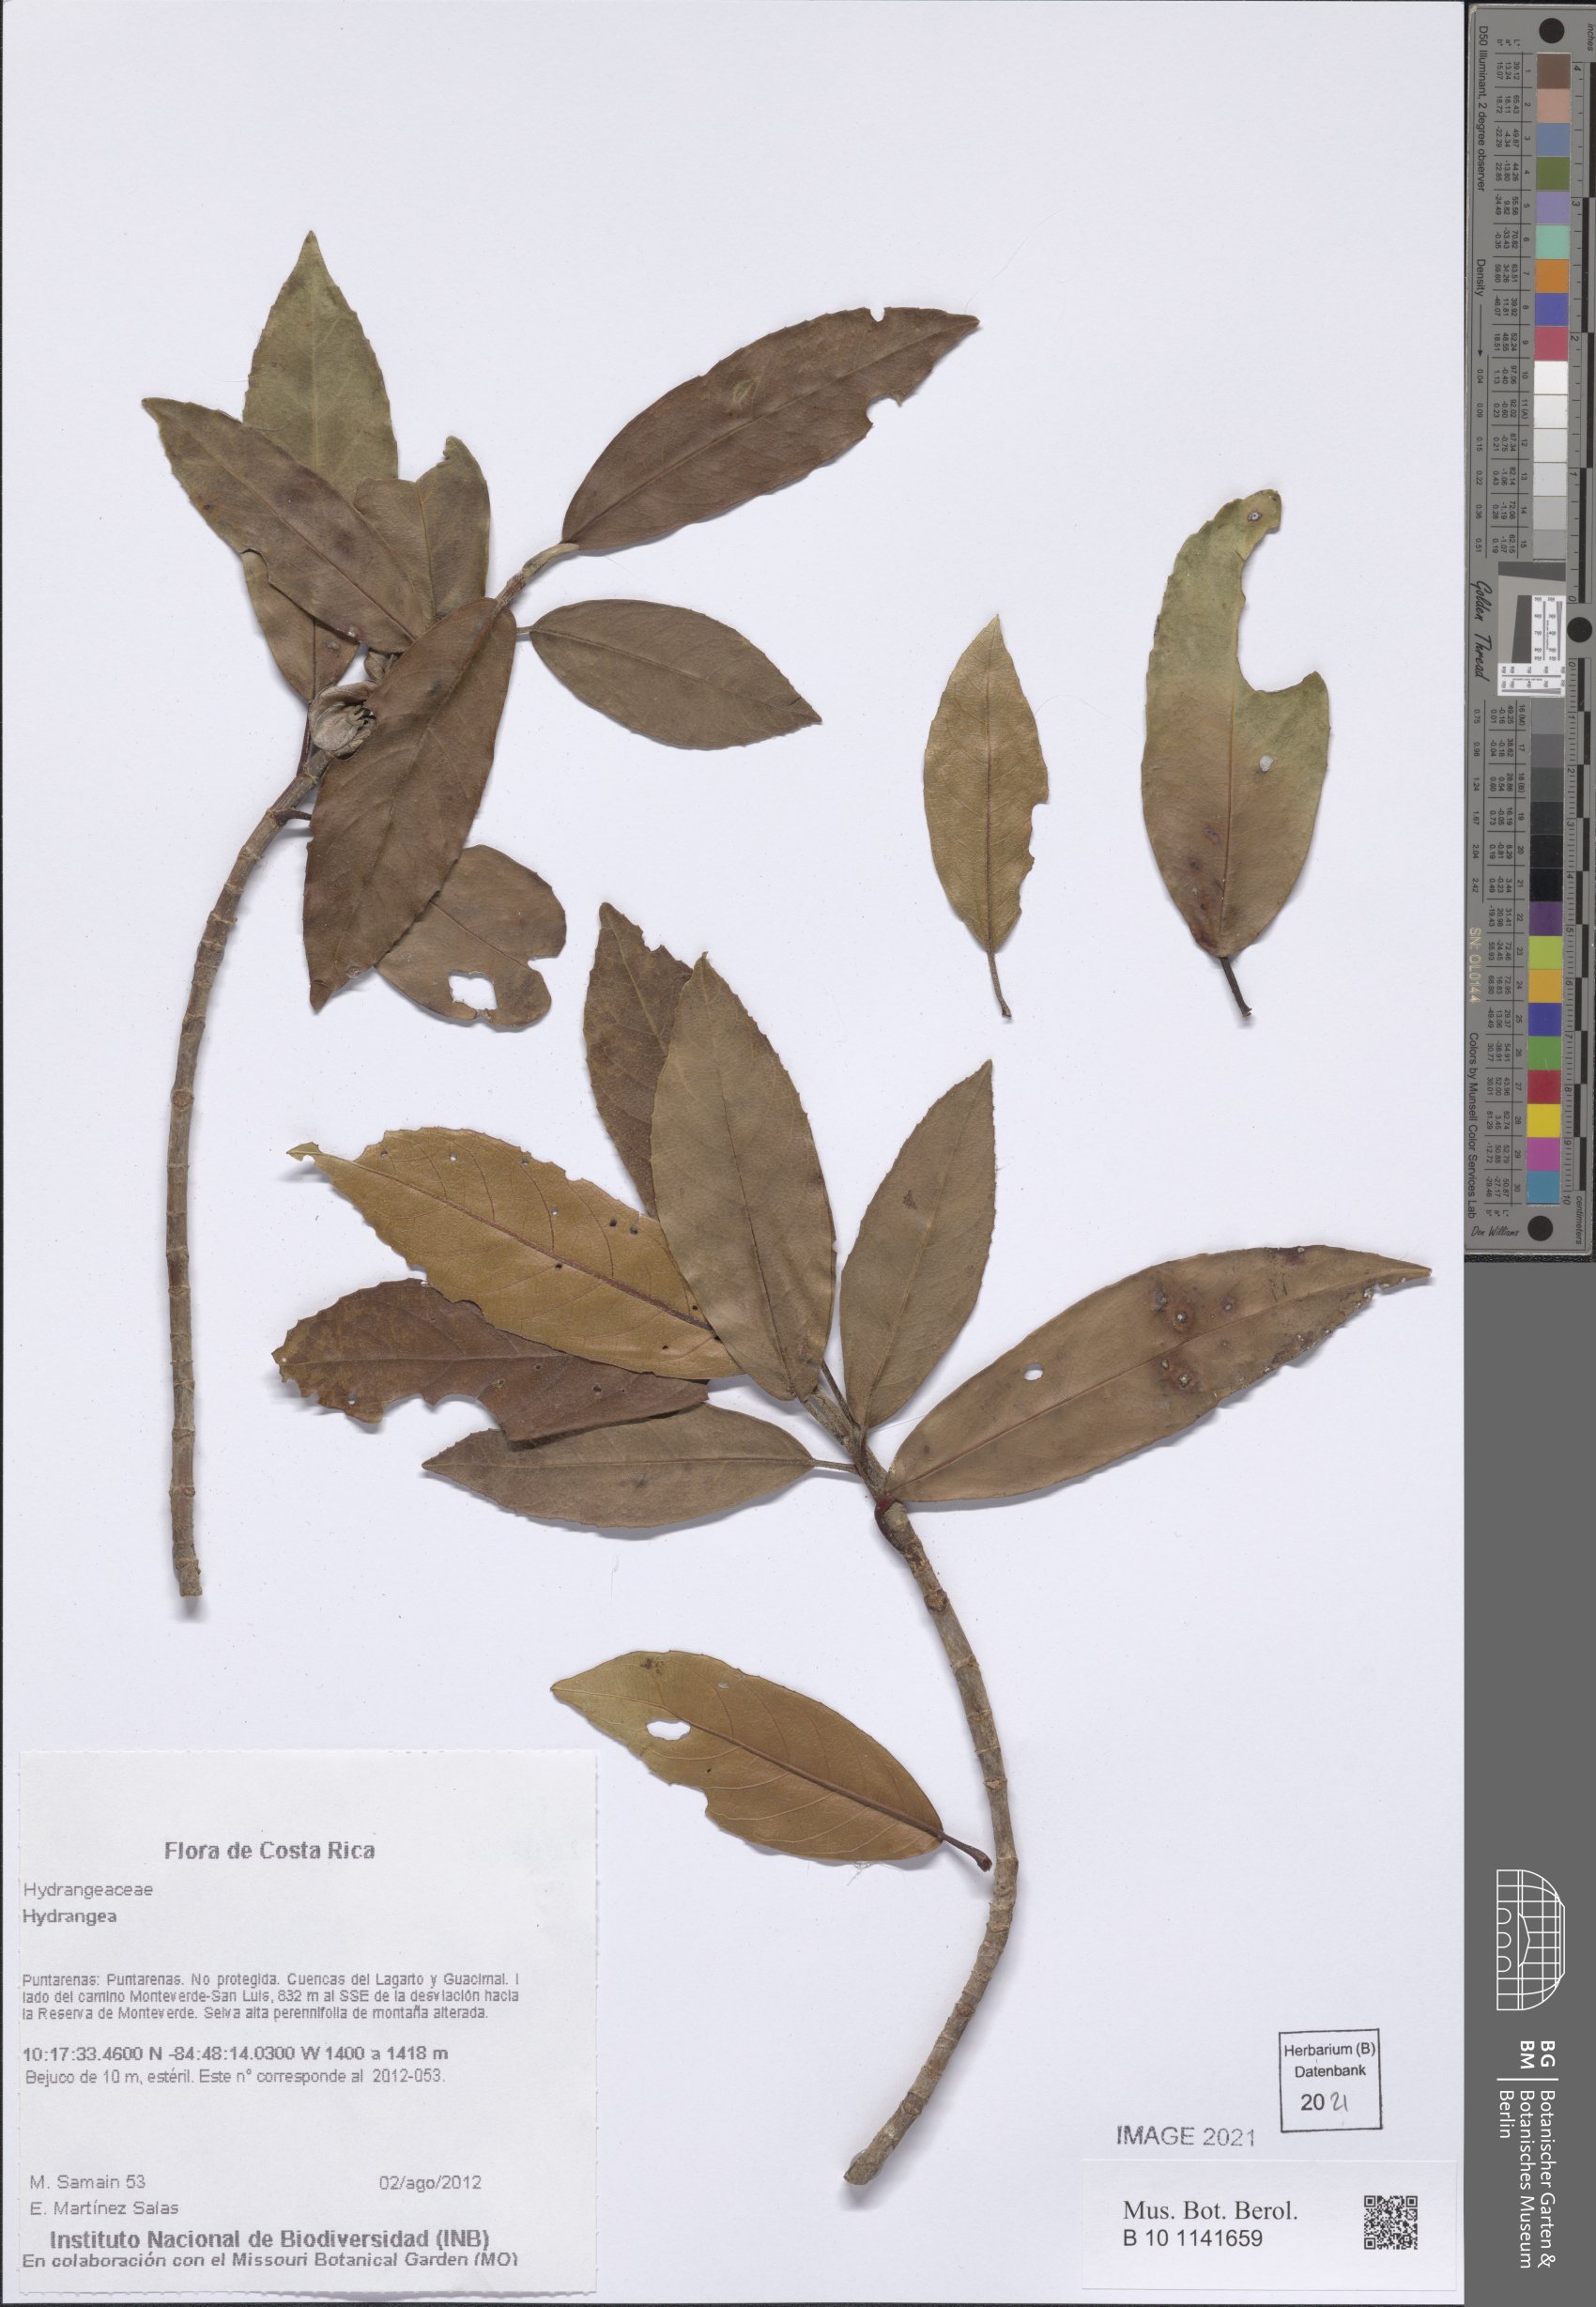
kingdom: Plantae
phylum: Tracheophyta
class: Magnoliopsida
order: Cornales
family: Hydrangeaceae
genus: Hydrangea
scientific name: Hydrangea
